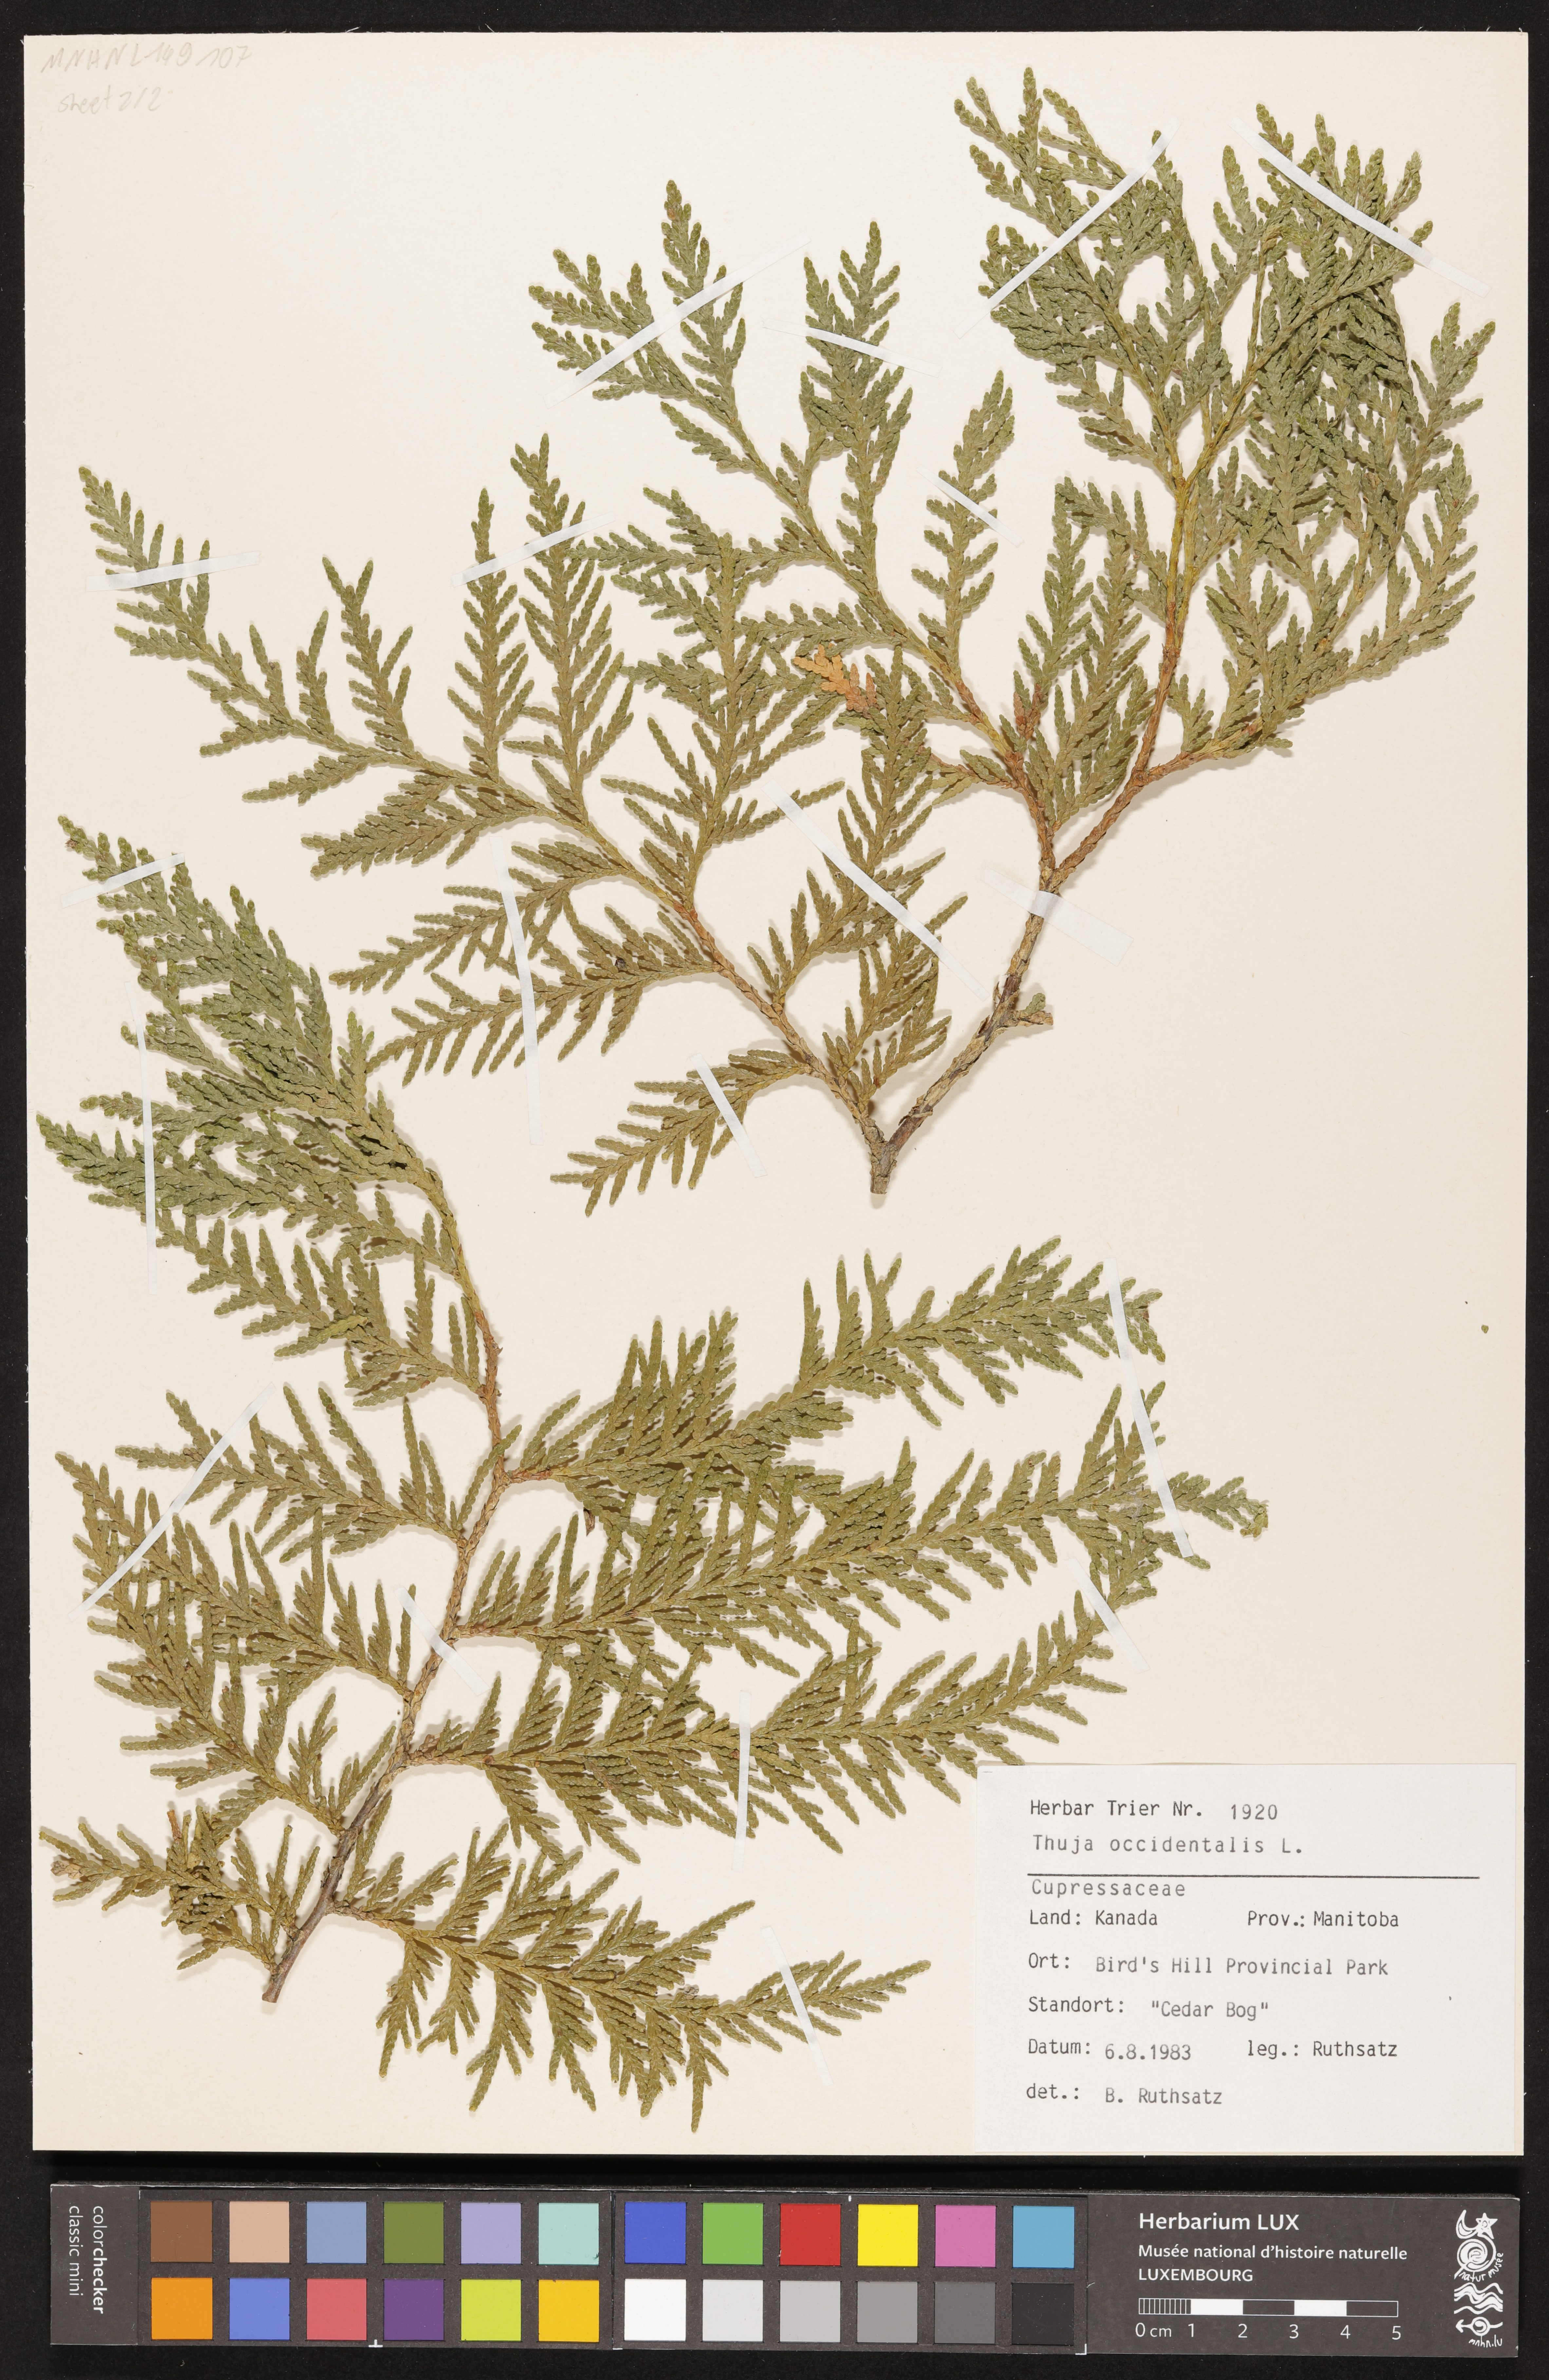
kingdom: Plantae
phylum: Tracheophyta
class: Pinopsida
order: Pinales
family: Cupressaceae
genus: Thuja
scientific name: Thuja occidentalis
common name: Northern white-cedar
